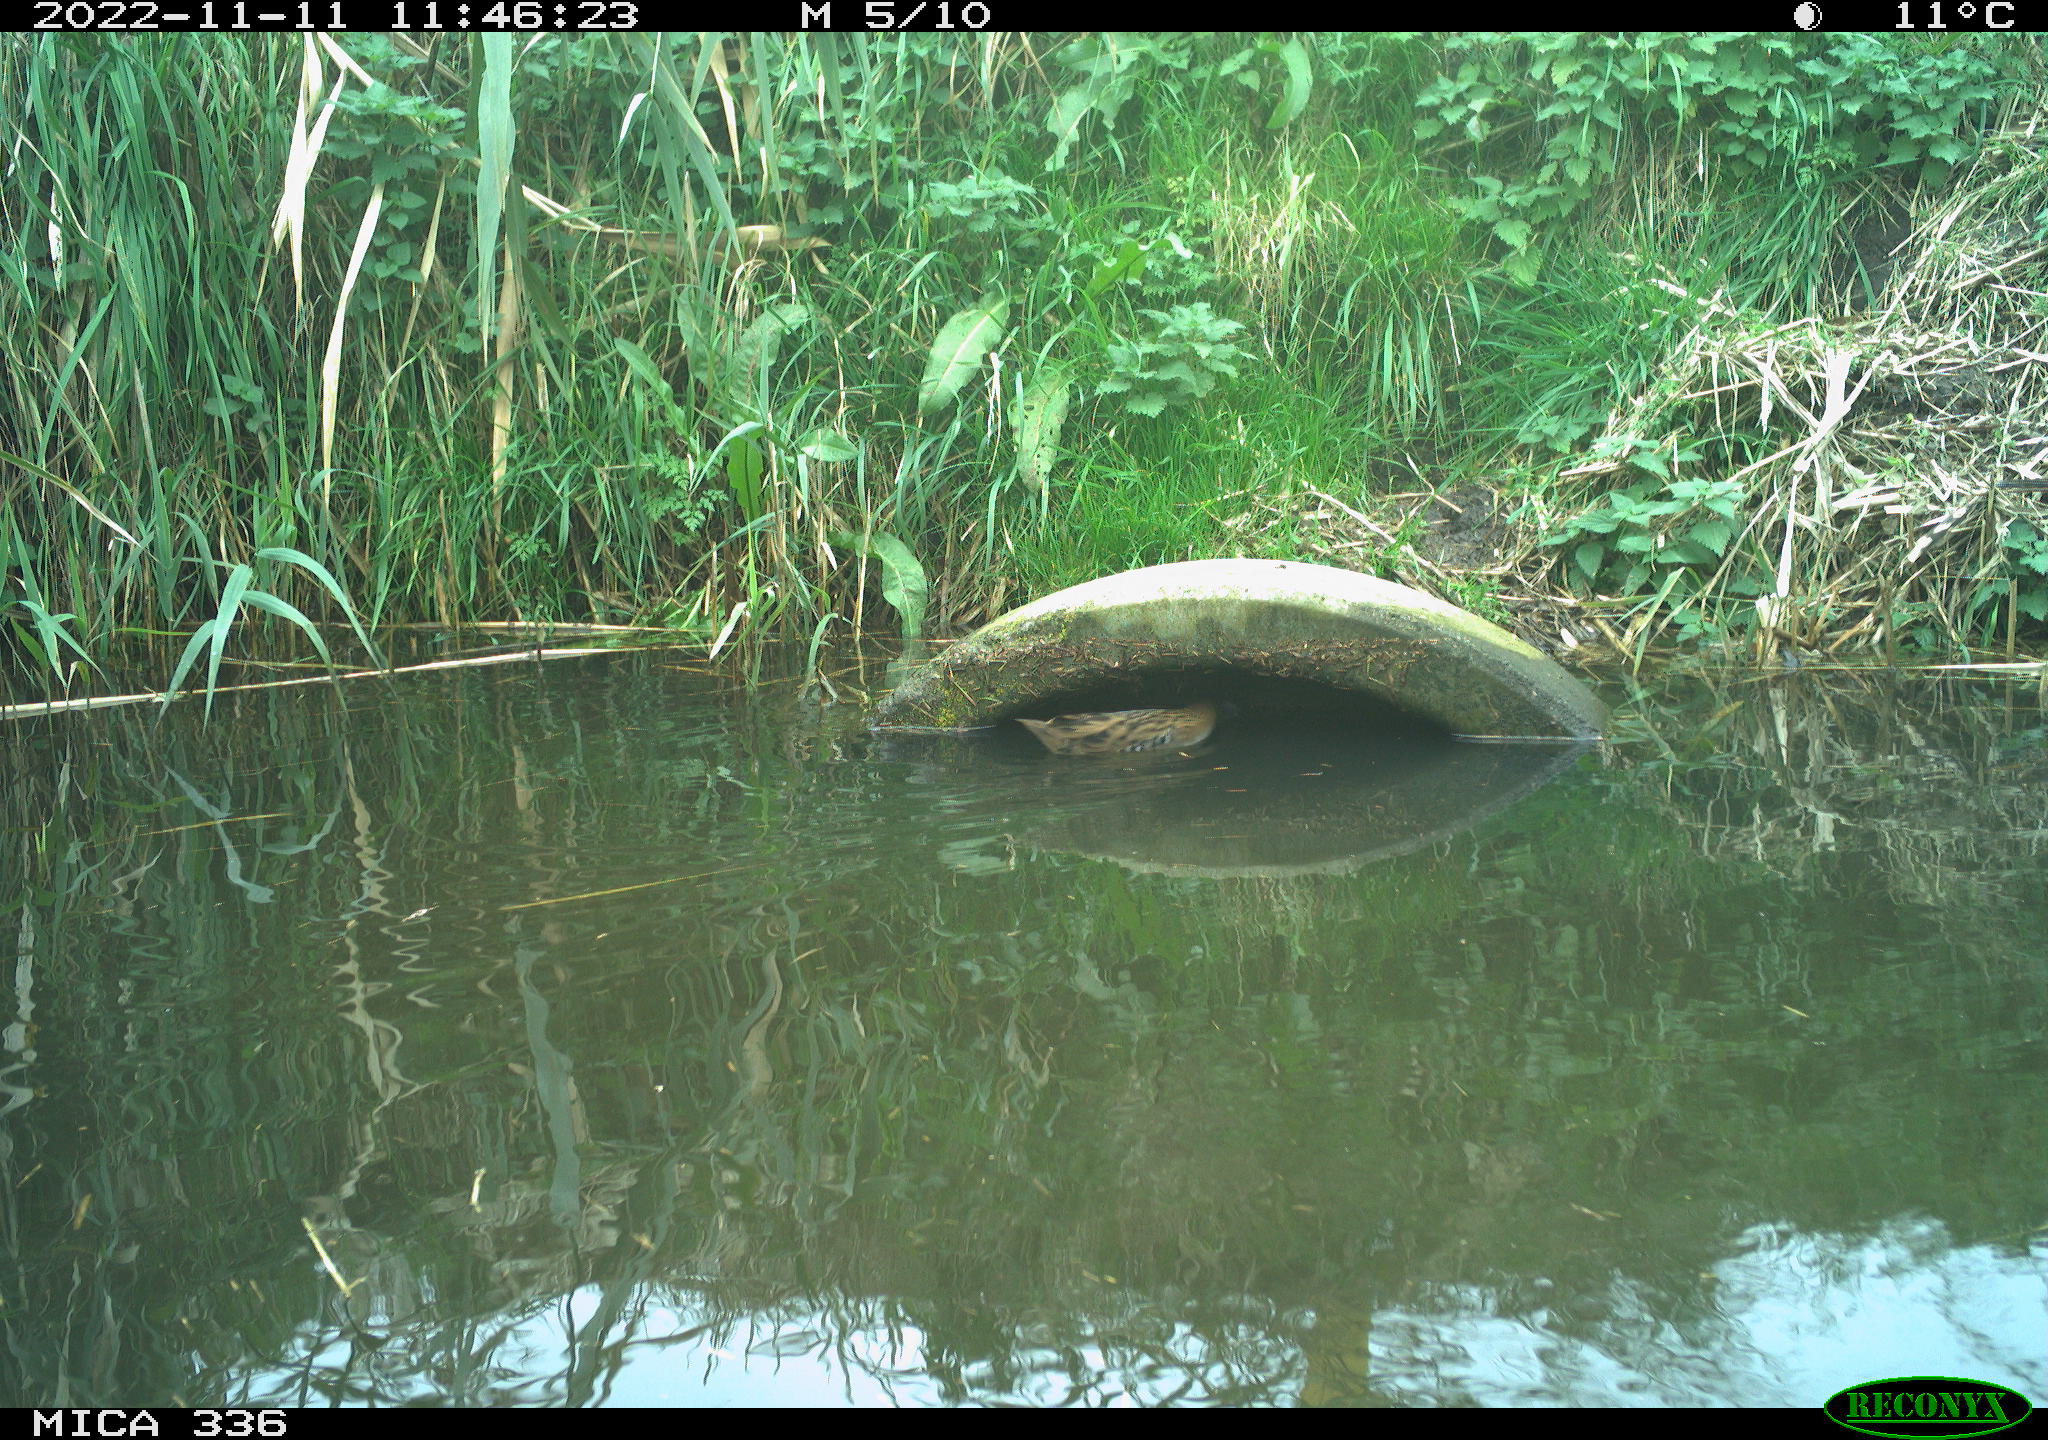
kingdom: Animalia
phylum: Chordata
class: Aves
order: Gruiformes
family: Rallidae
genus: Rallus
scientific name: Rallus aquaticus
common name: Water rail
